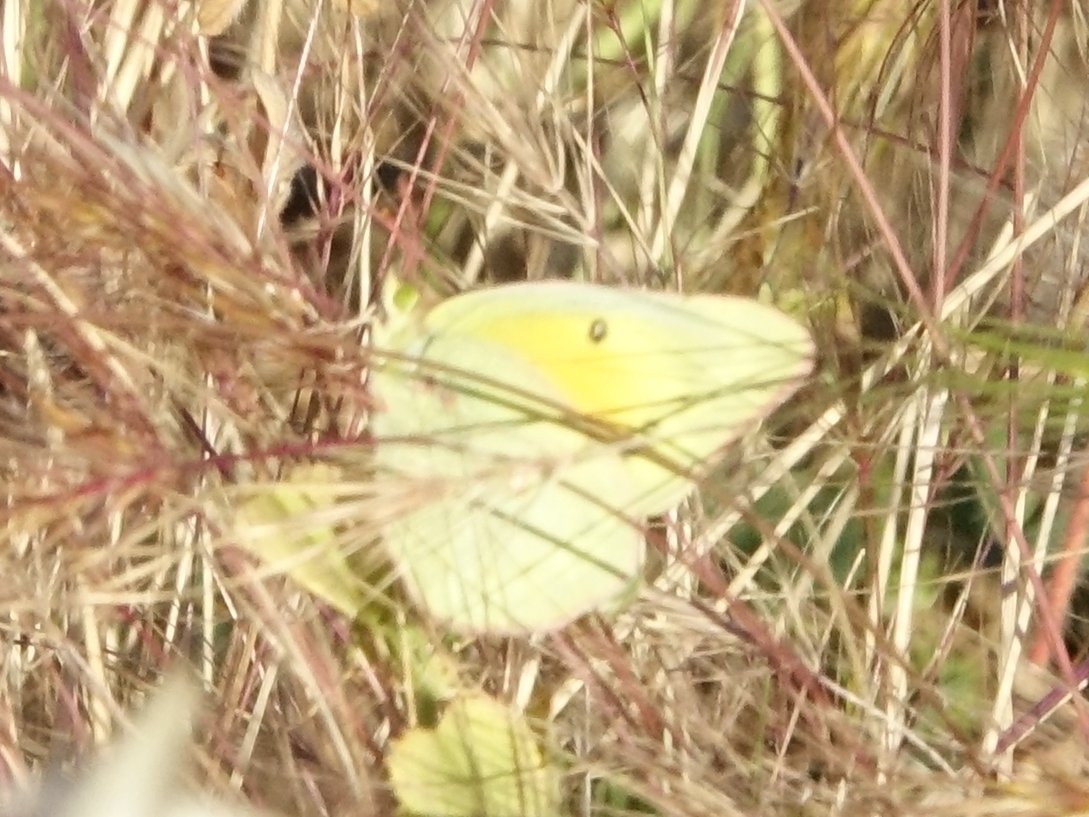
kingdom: Animalia
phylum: Arthropoda
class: Insecta
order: Lepidoptera
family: Pieridae
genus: Colias
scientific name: Colias eurytheme
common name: Orange Sulphur
